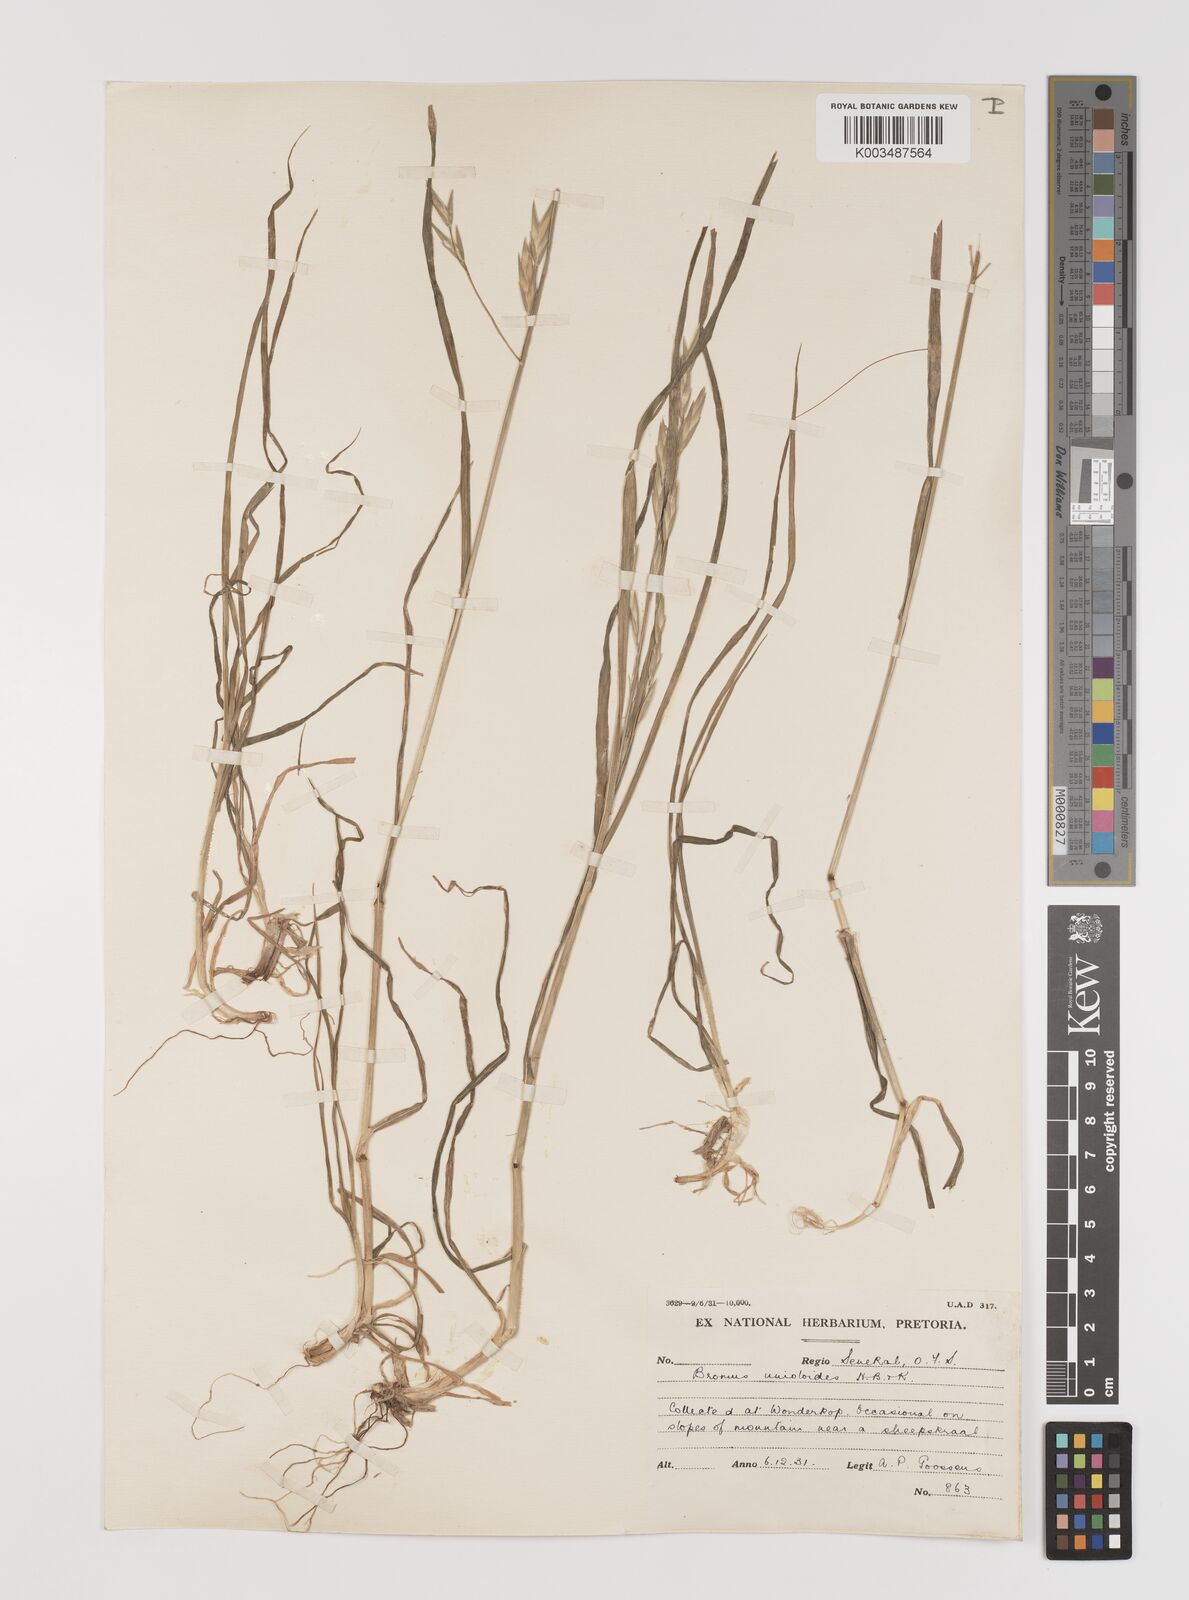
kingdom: Plantae
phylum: Tracheophyta
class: Liliopsida
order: Poales
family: Poaceae
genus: Bromus
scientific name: Bromus catharticus
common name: Rescuegrass
